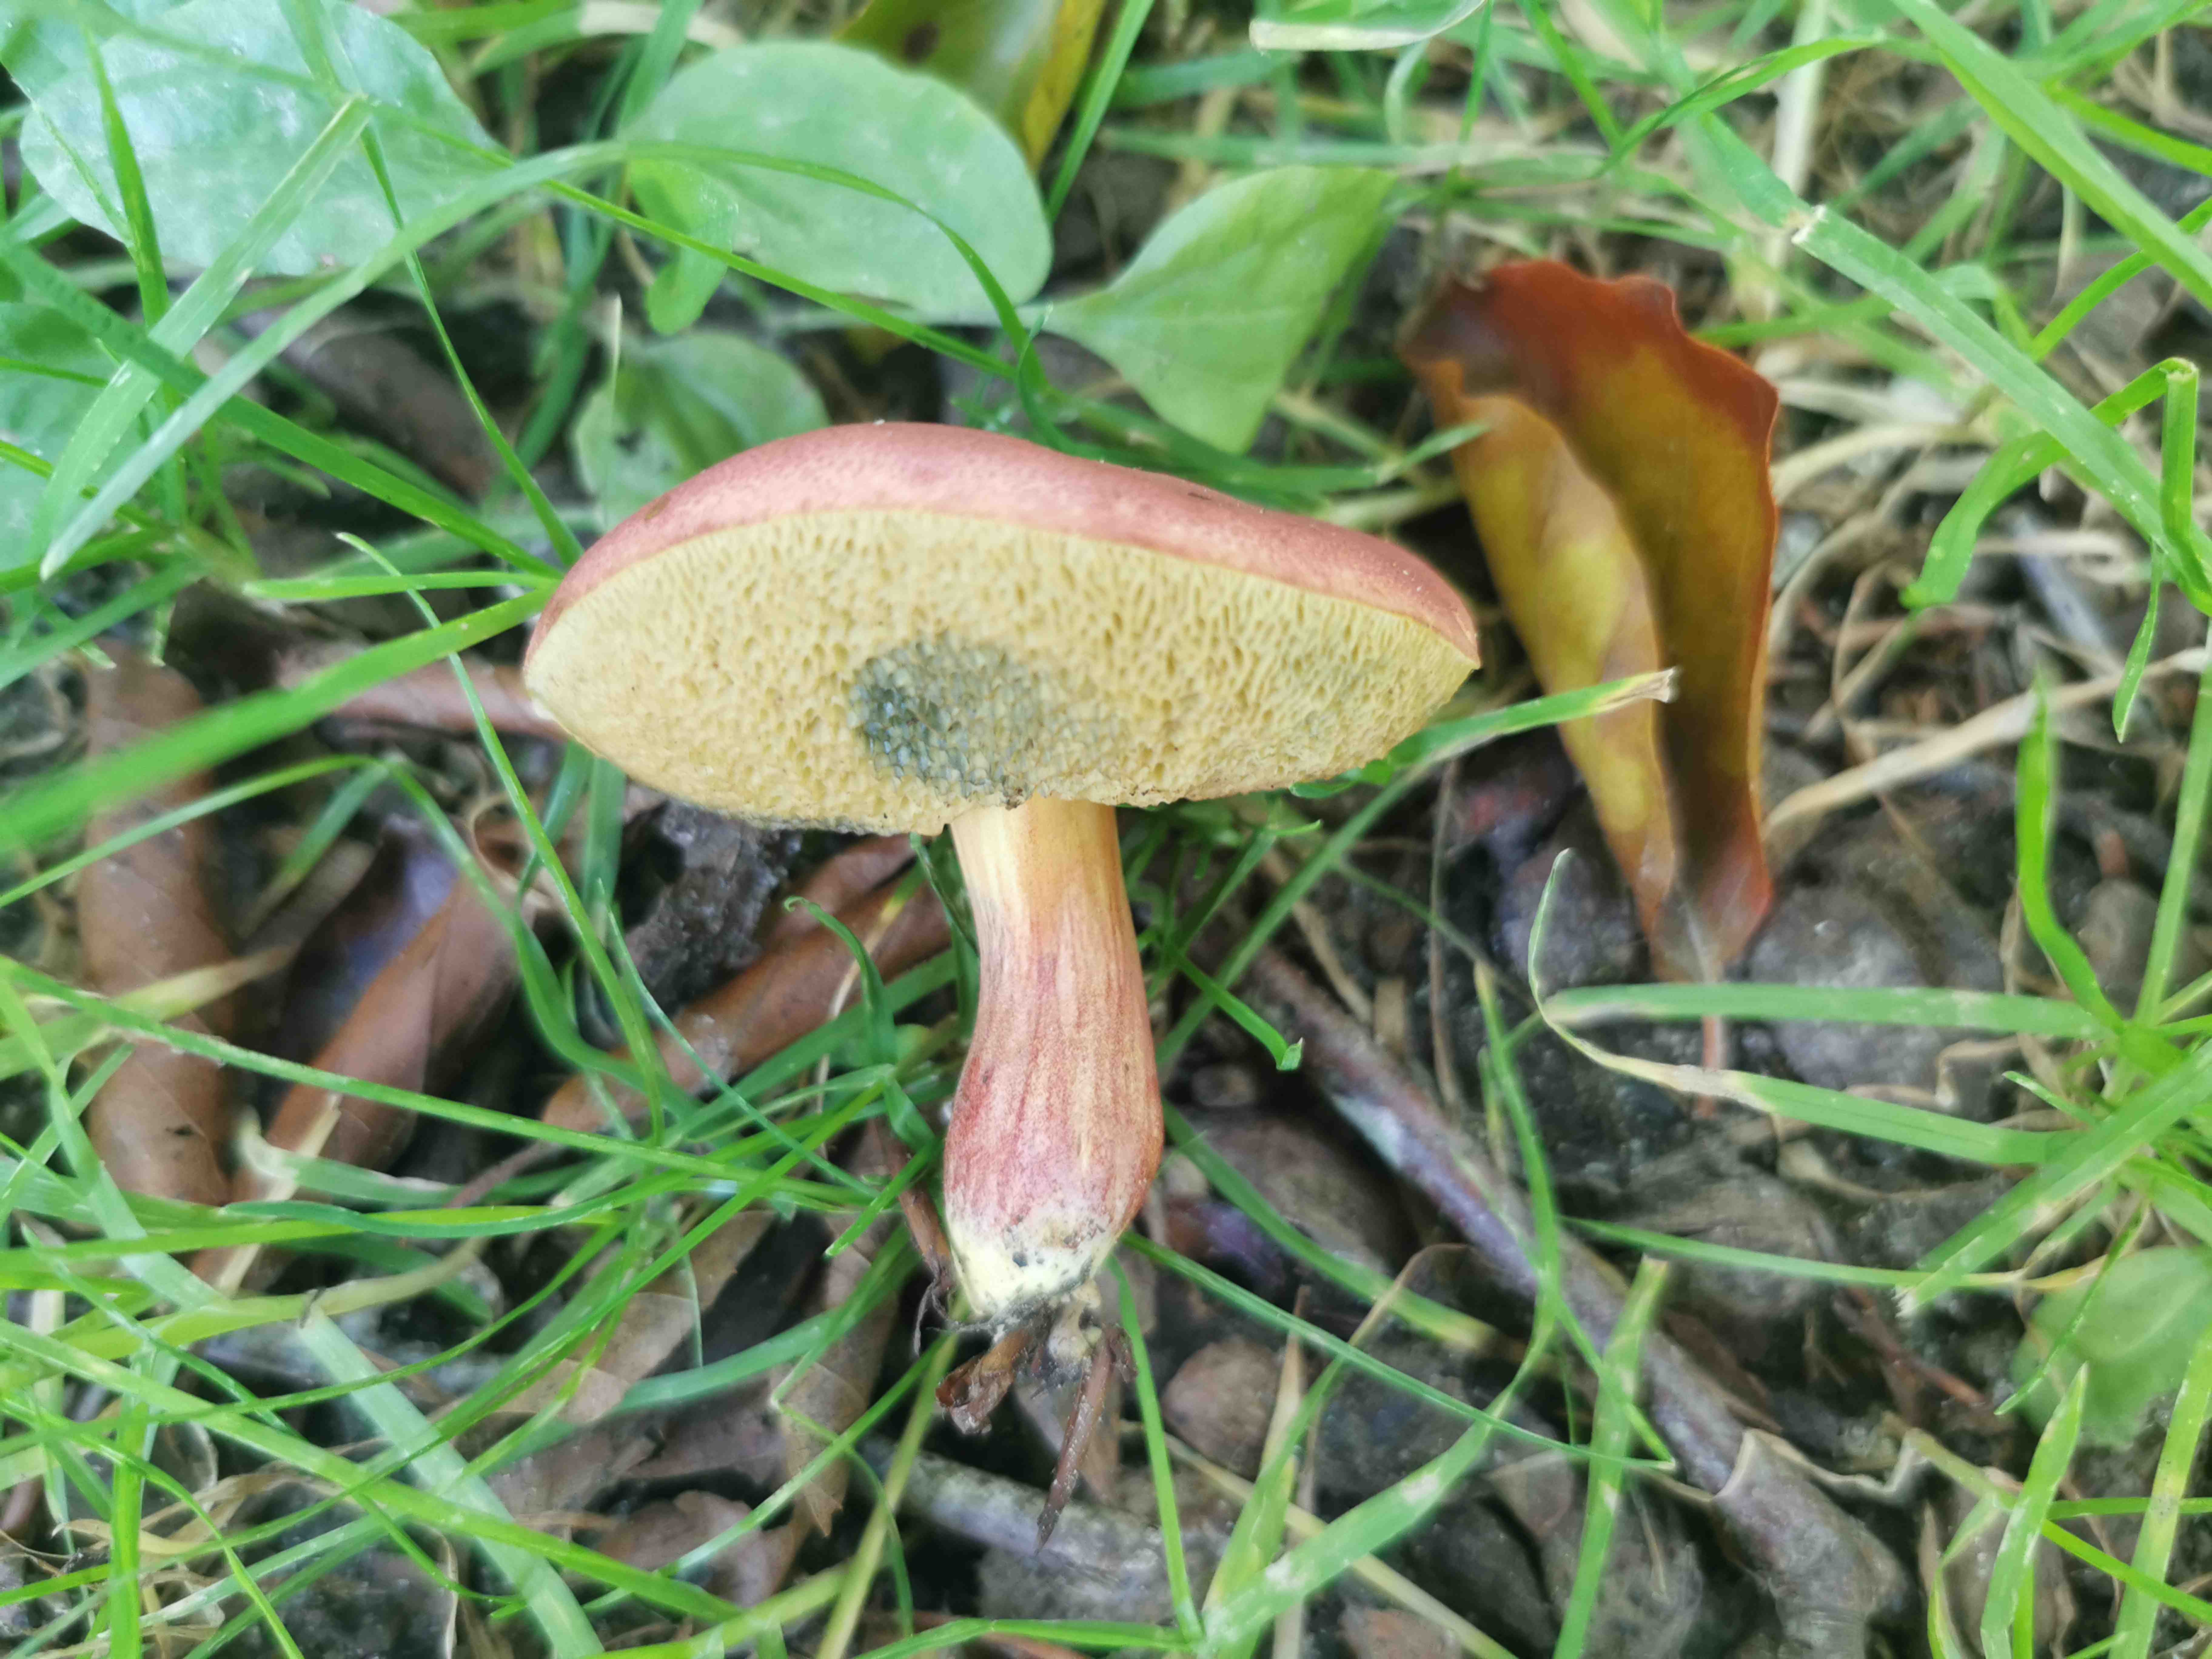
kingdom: Fungi
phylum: Basidiomycota
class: Agaricomycetes
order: Boletales
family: Boletaceae
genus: Hortiboletus
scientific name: Hortiboletus rubellus
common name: blodrød rørhat
